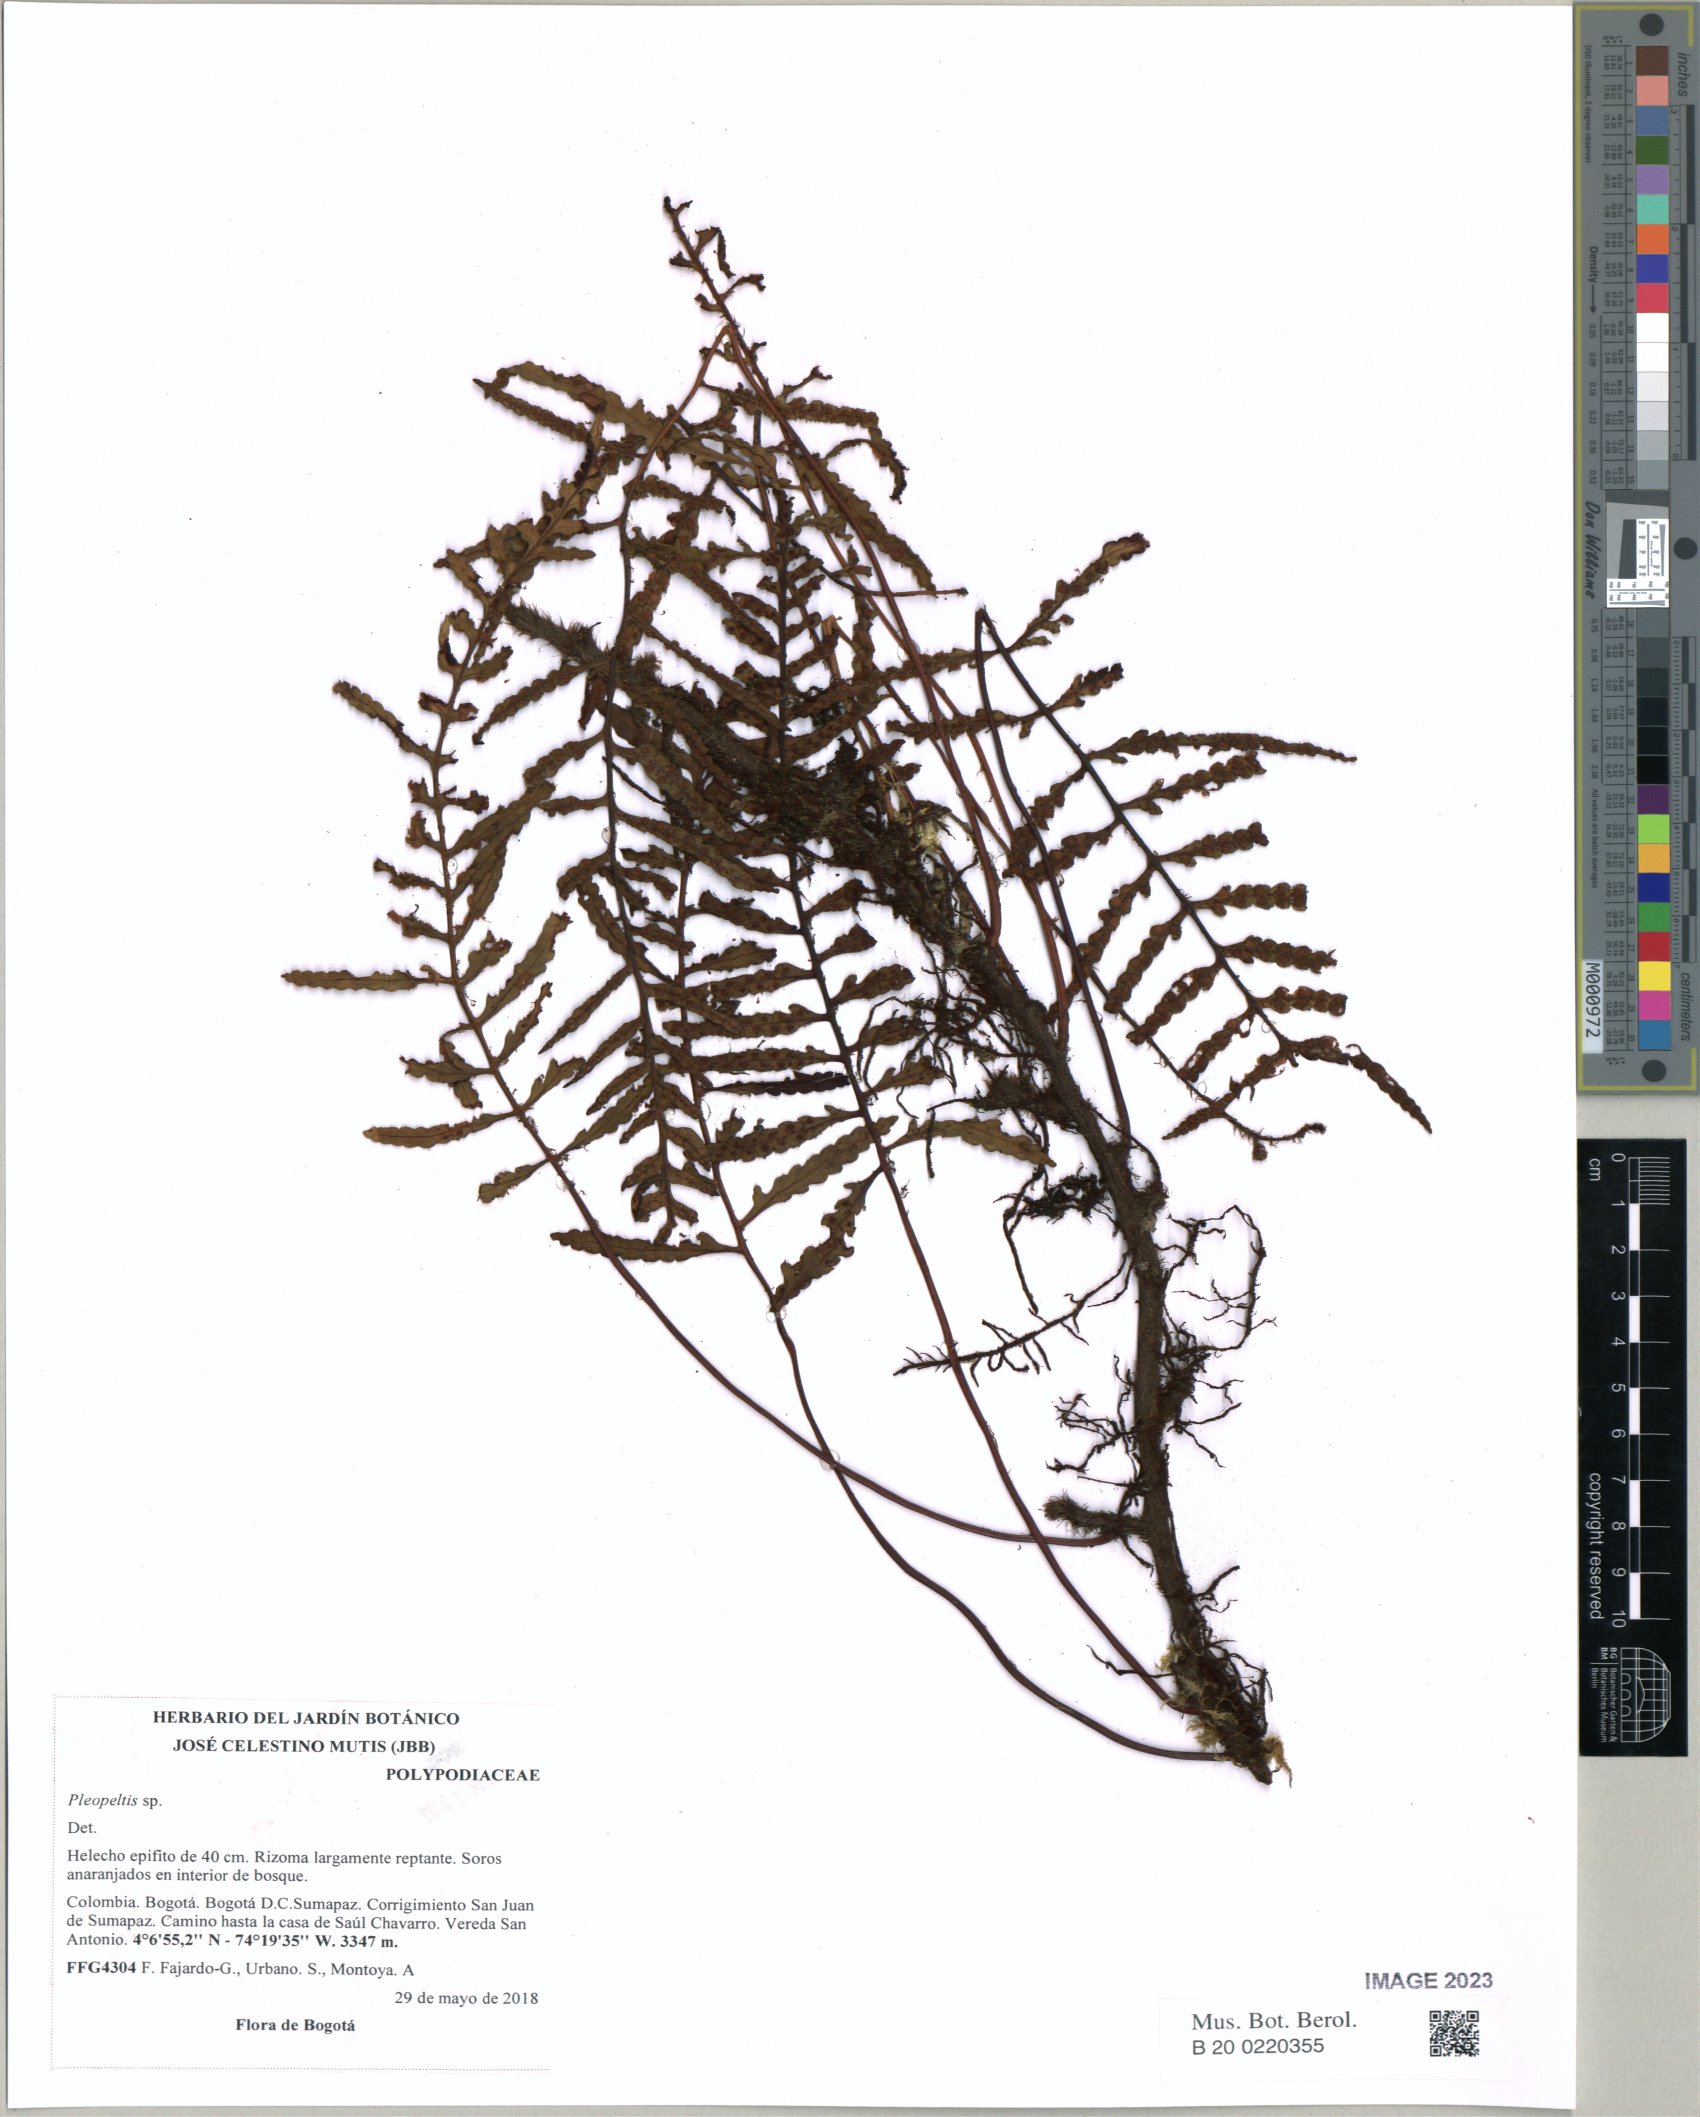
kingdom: Plantae
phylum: Tracheophyta
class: Polypodiopsida
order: Polypodiales
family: Polypodiaceae
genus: Pleopeltis
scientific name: Pleopeltis
